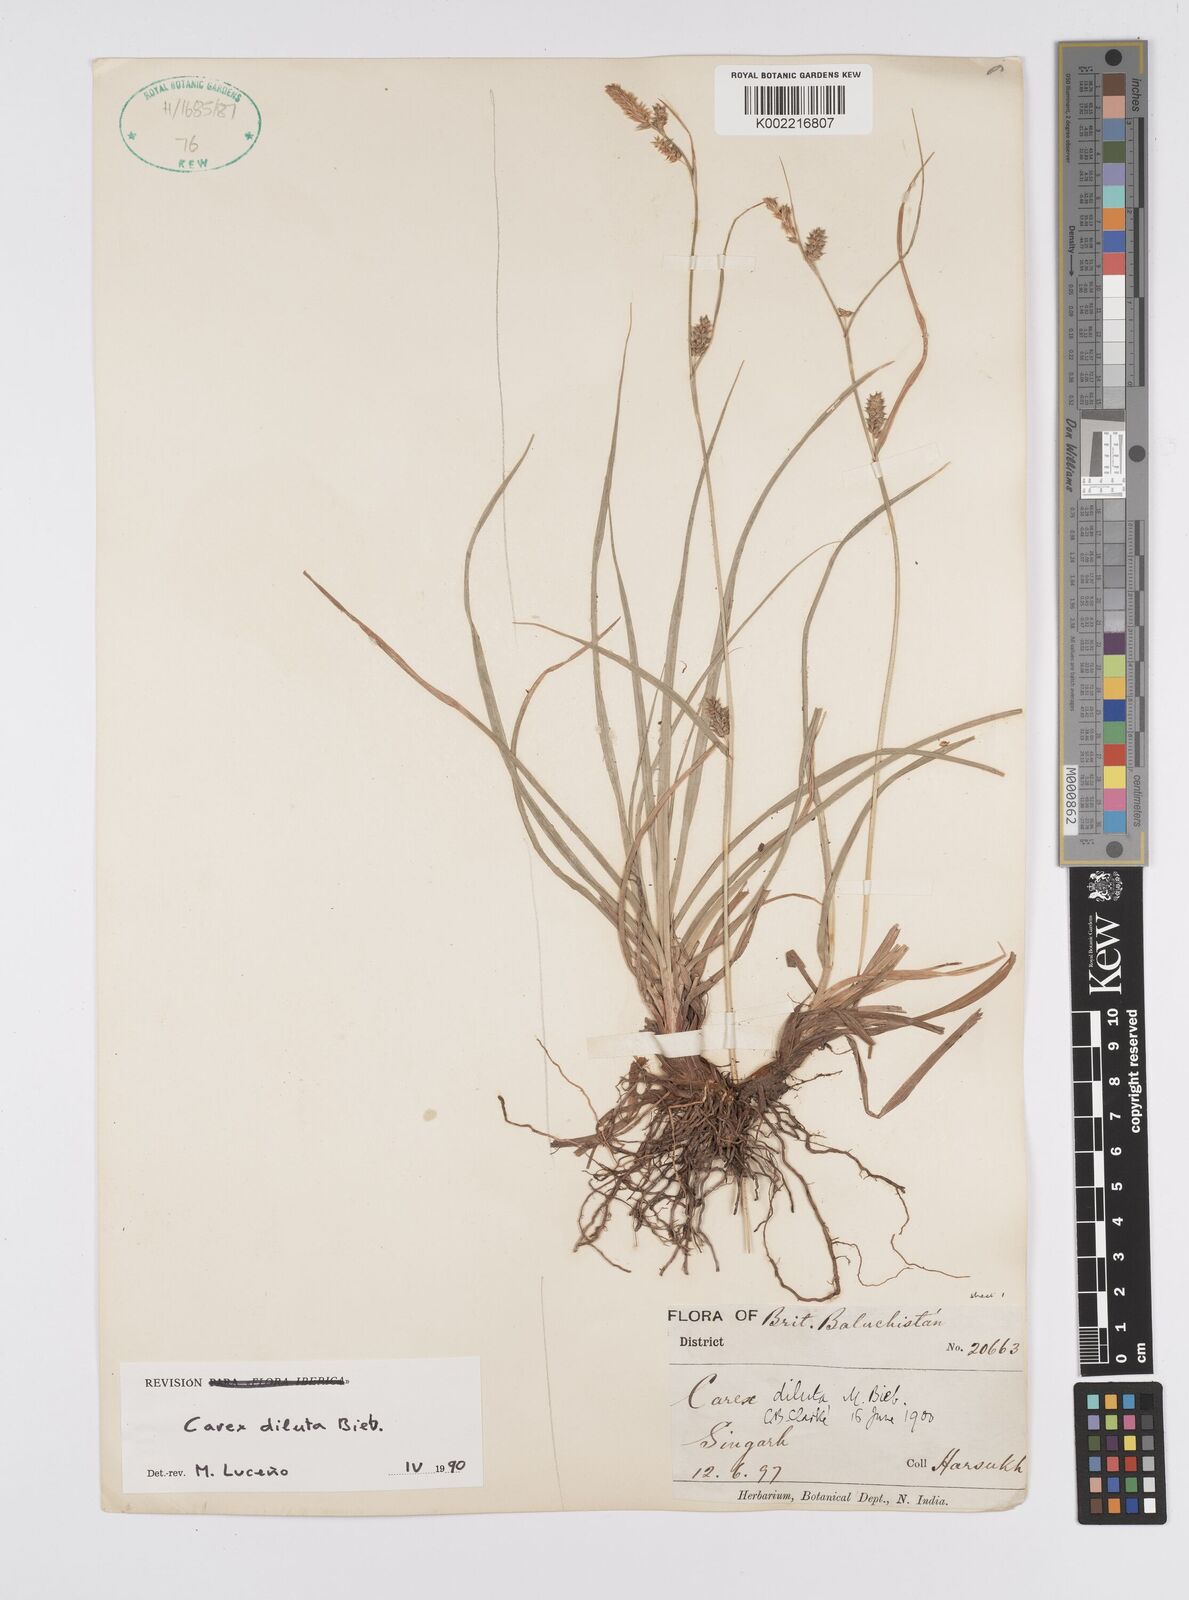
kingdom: Plantae
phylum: Tracheophyta
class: Liliopsida
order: Poales
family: Cyperaceae
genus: Carex
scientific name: Carex diluta
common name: Sedge
